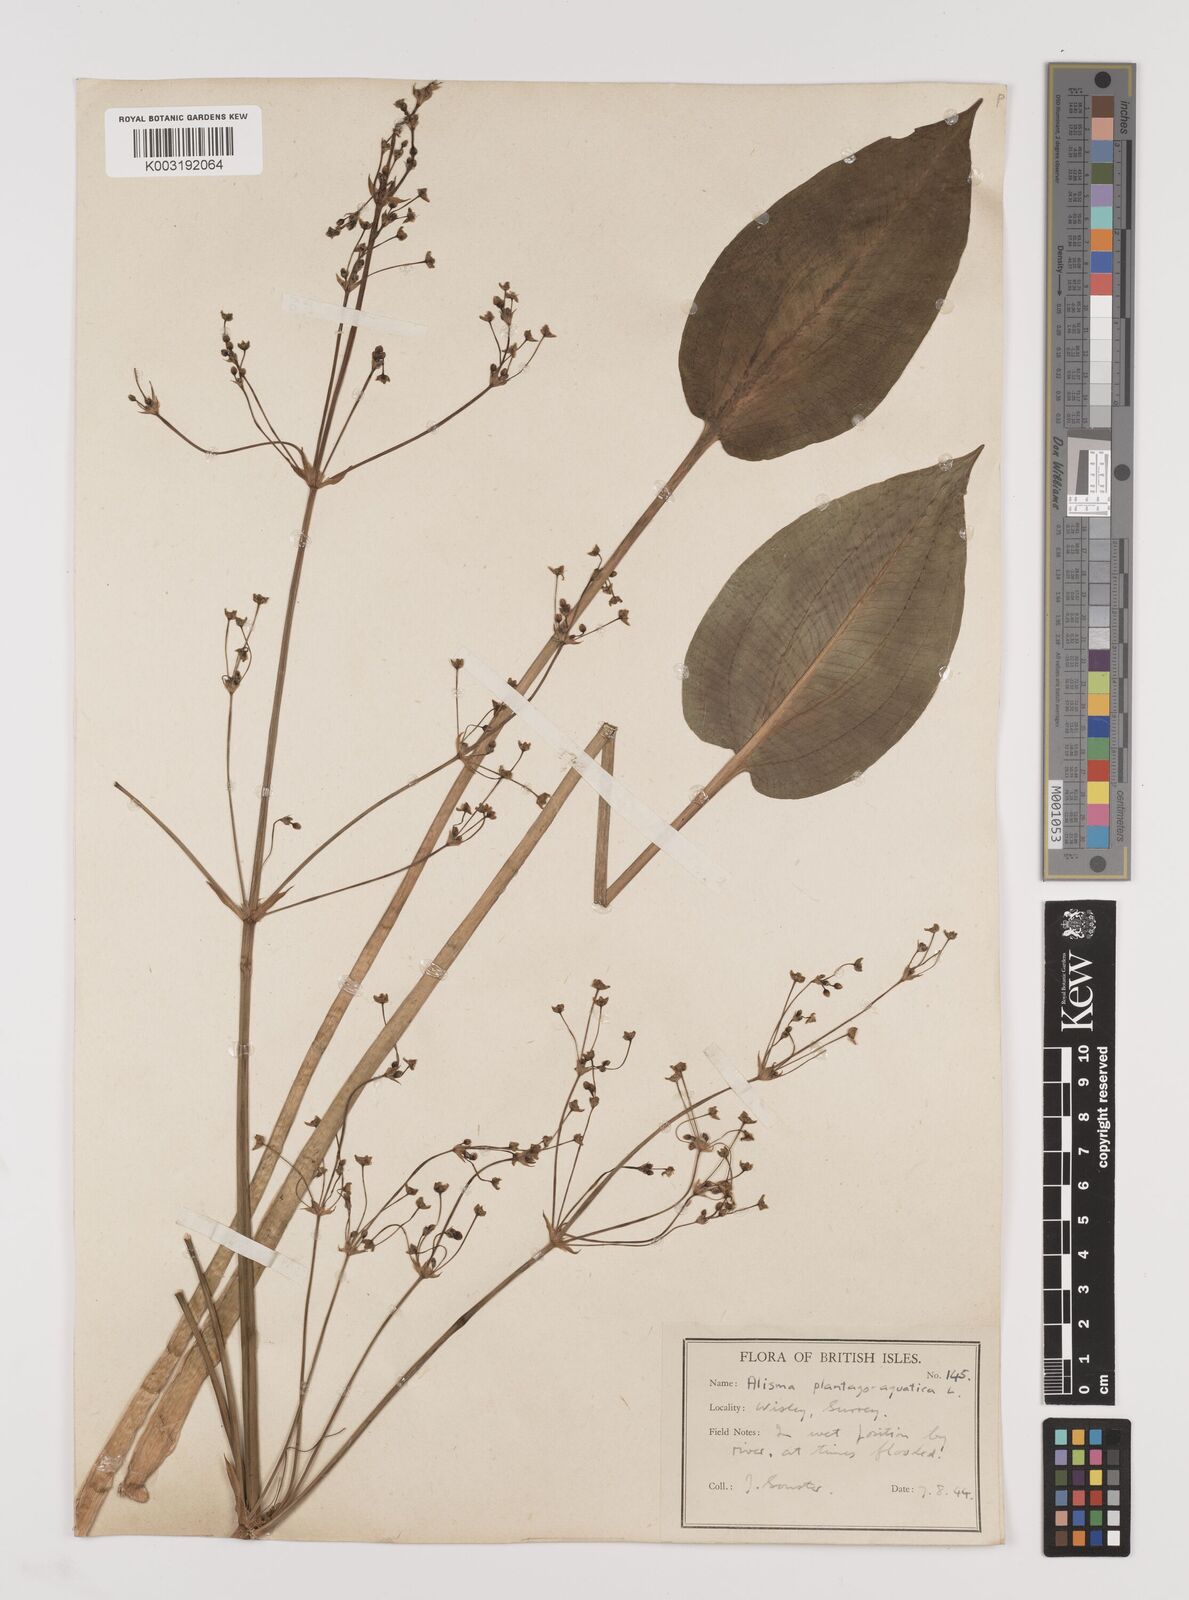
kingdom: Plantae
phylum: Tracheophyta
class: Liliopsida
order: Alismatales
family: Alismataceae
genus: Alisma
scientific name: Alisma plantago-aquatica
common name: Water-plantain
